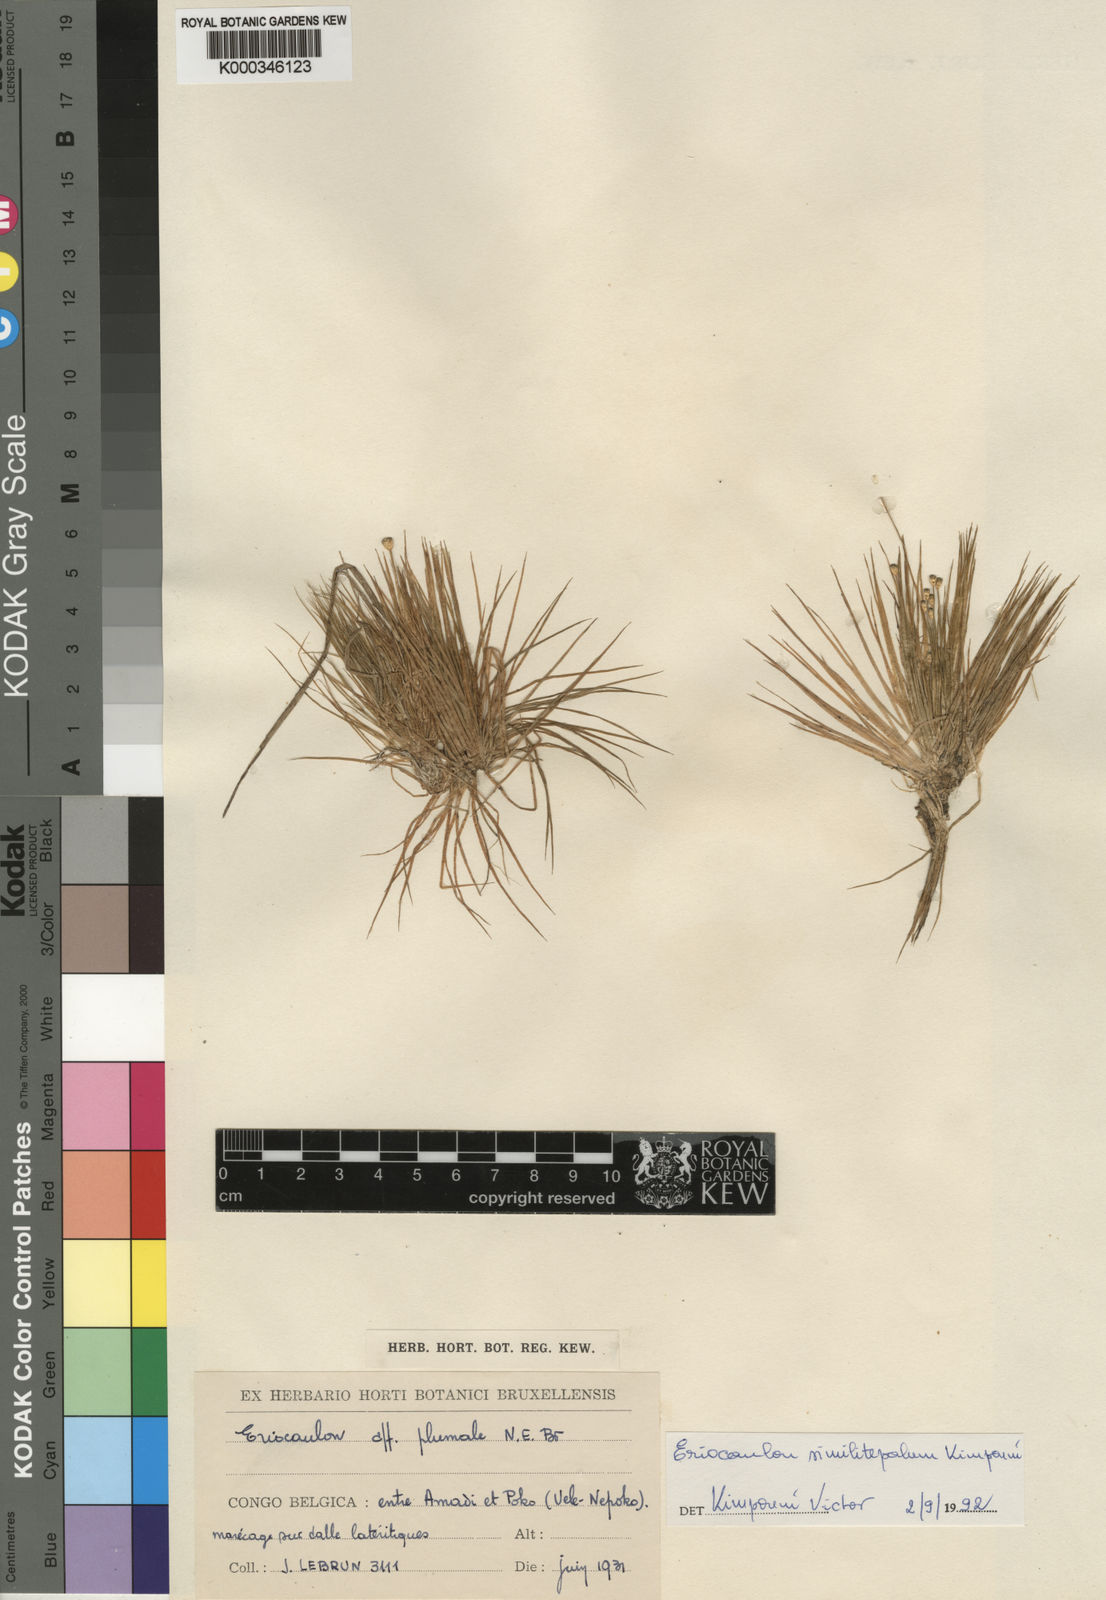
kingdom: Plantae
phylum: Tracheophyta
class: Liliopsida
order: Poales
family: Eriocaulaceae
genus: Eriocaulon
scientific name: Eriocaulon similitepalum
